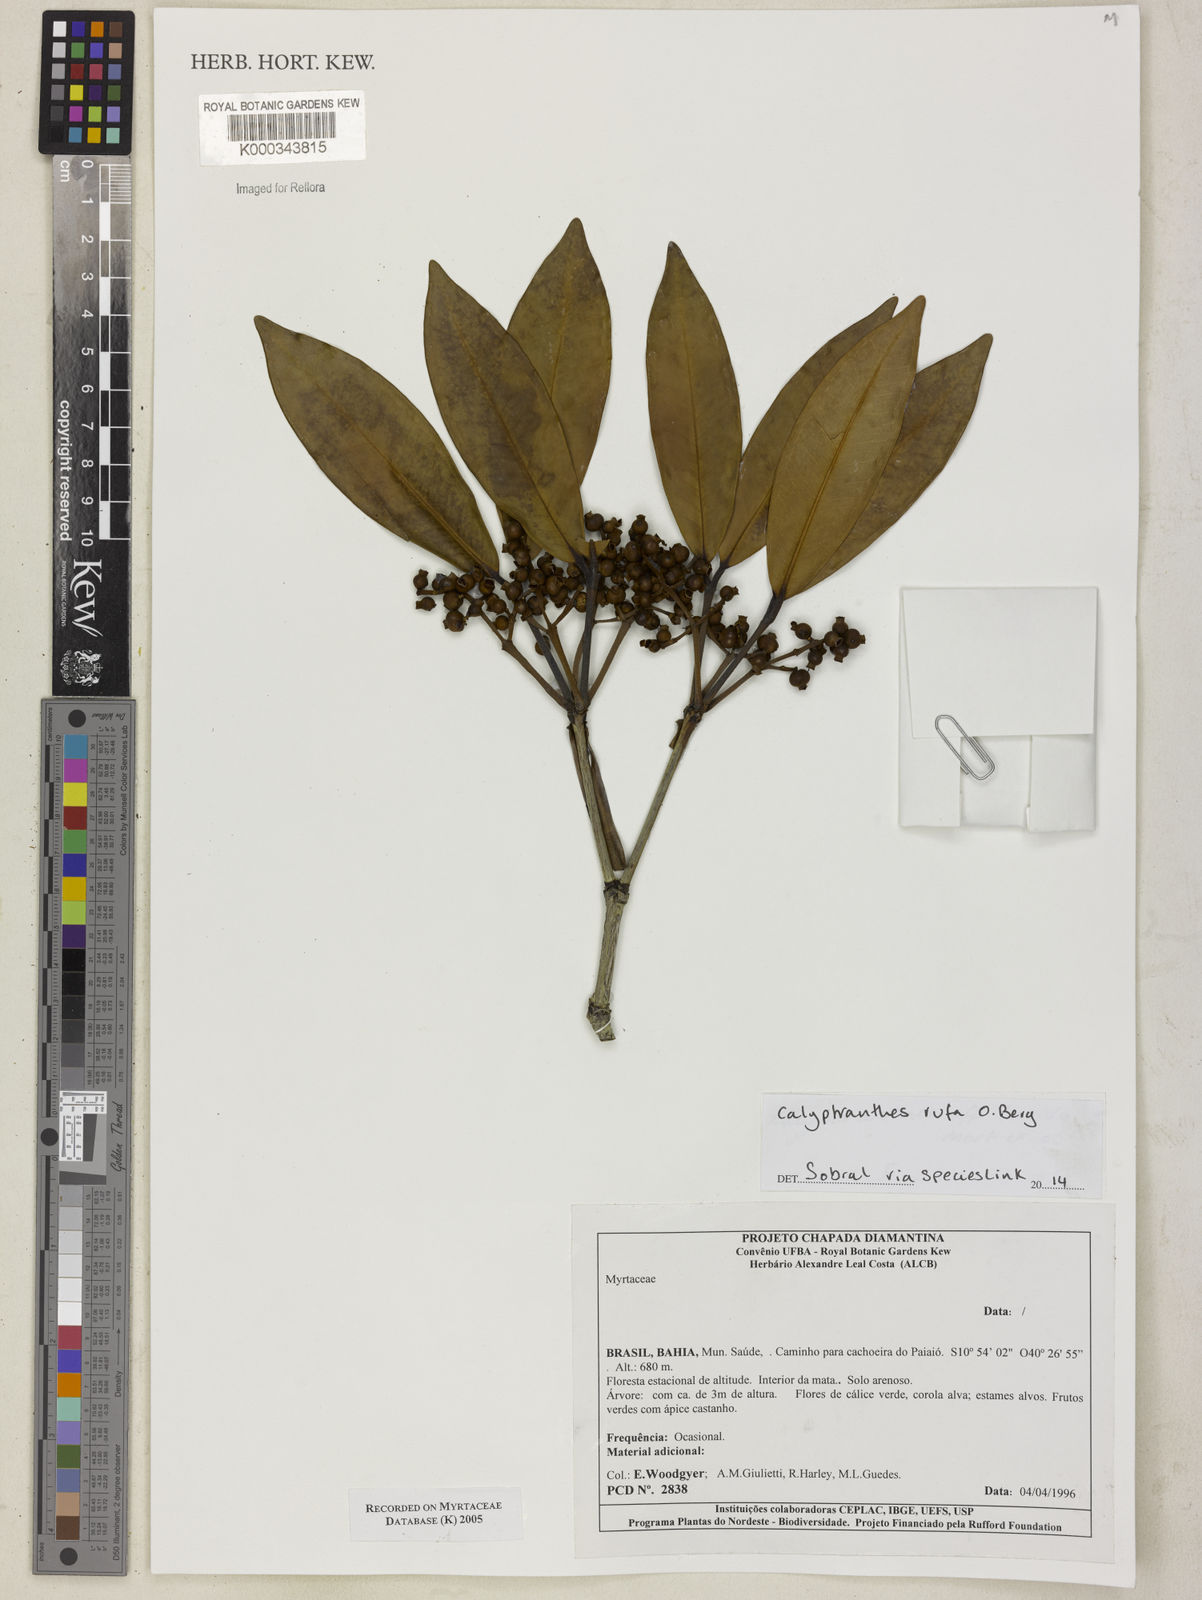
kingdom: Plantae
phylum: Tracheophyta
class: Magnoliopsida
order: Myrtales
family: Myrtaceae
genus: Myrcia
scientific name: Myrcia neolucida
